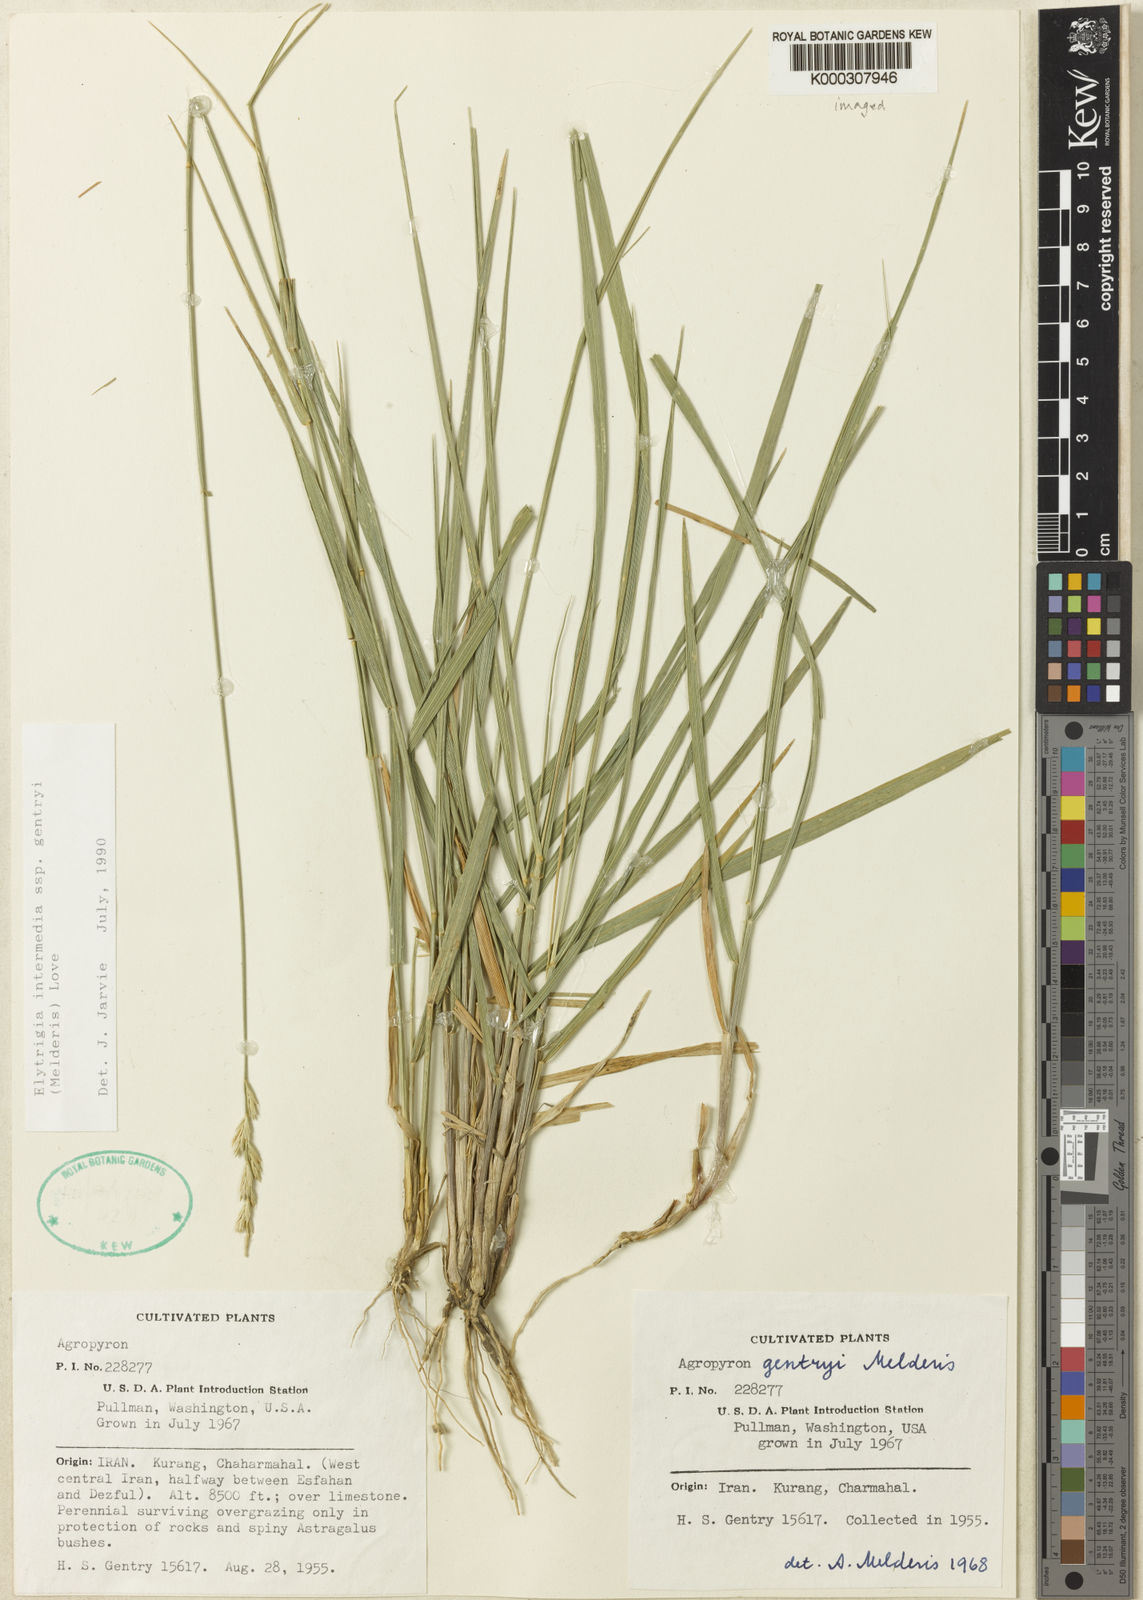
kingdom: Plantae
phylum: Tracheophyta
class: Liliopsida
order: Poales
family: Poaceae
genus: Thinopyrum
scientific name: Thinopyrum gentryi
